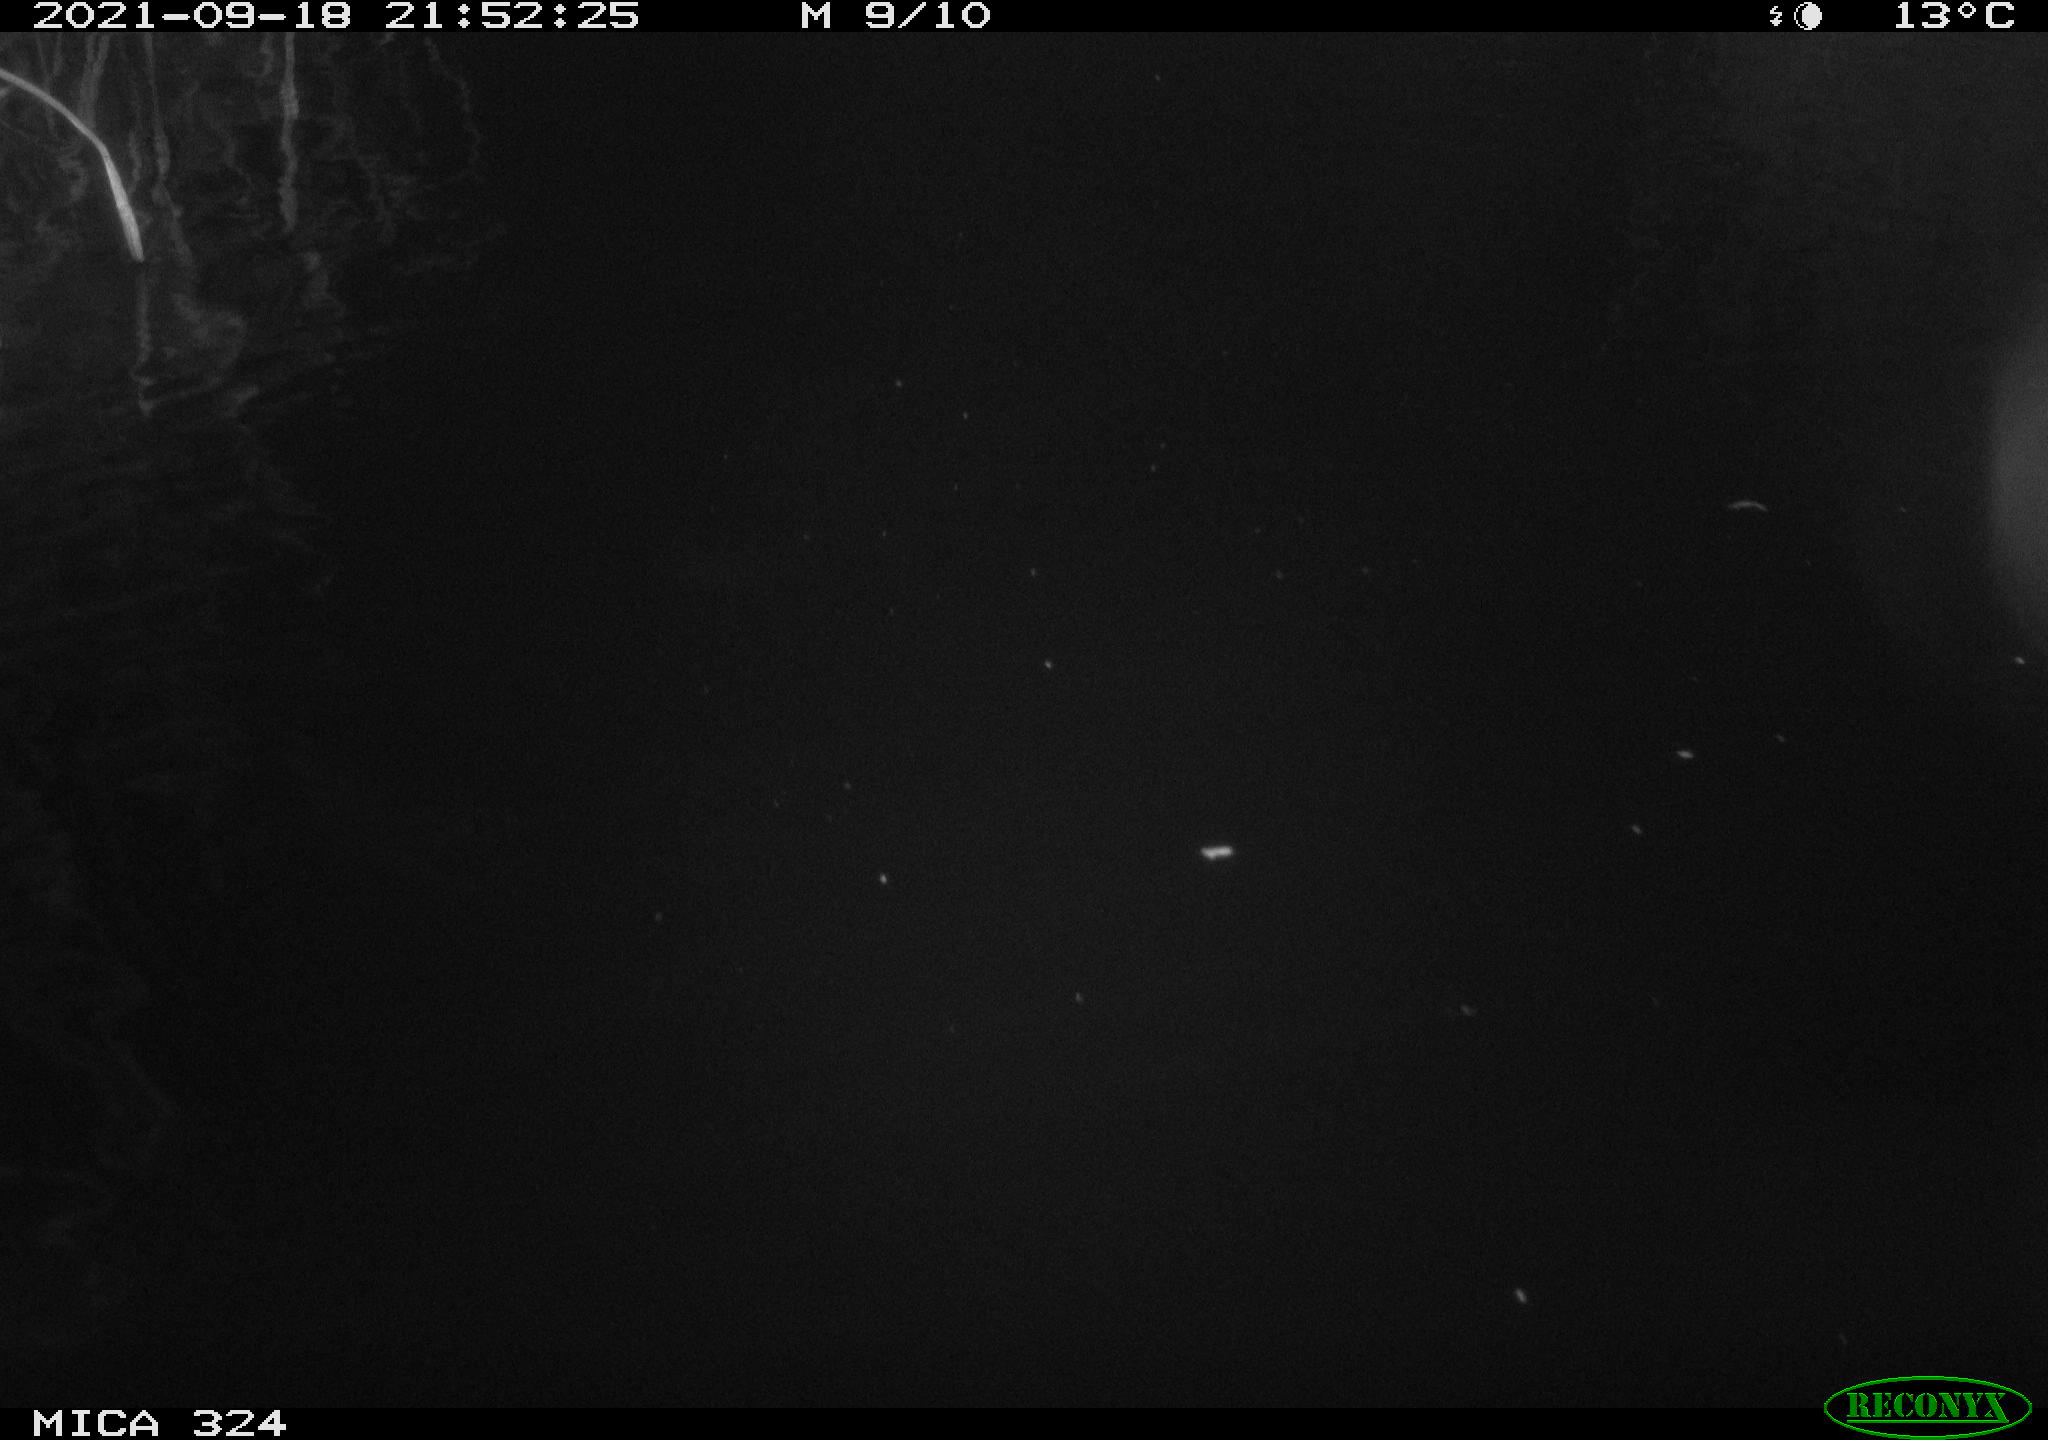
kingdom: Animalia
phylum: Chordata
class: Mammalia
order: Rodentia
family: Cricetidae
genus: Ondatra
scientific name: Ondatra zibethicus
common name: Muskrat
